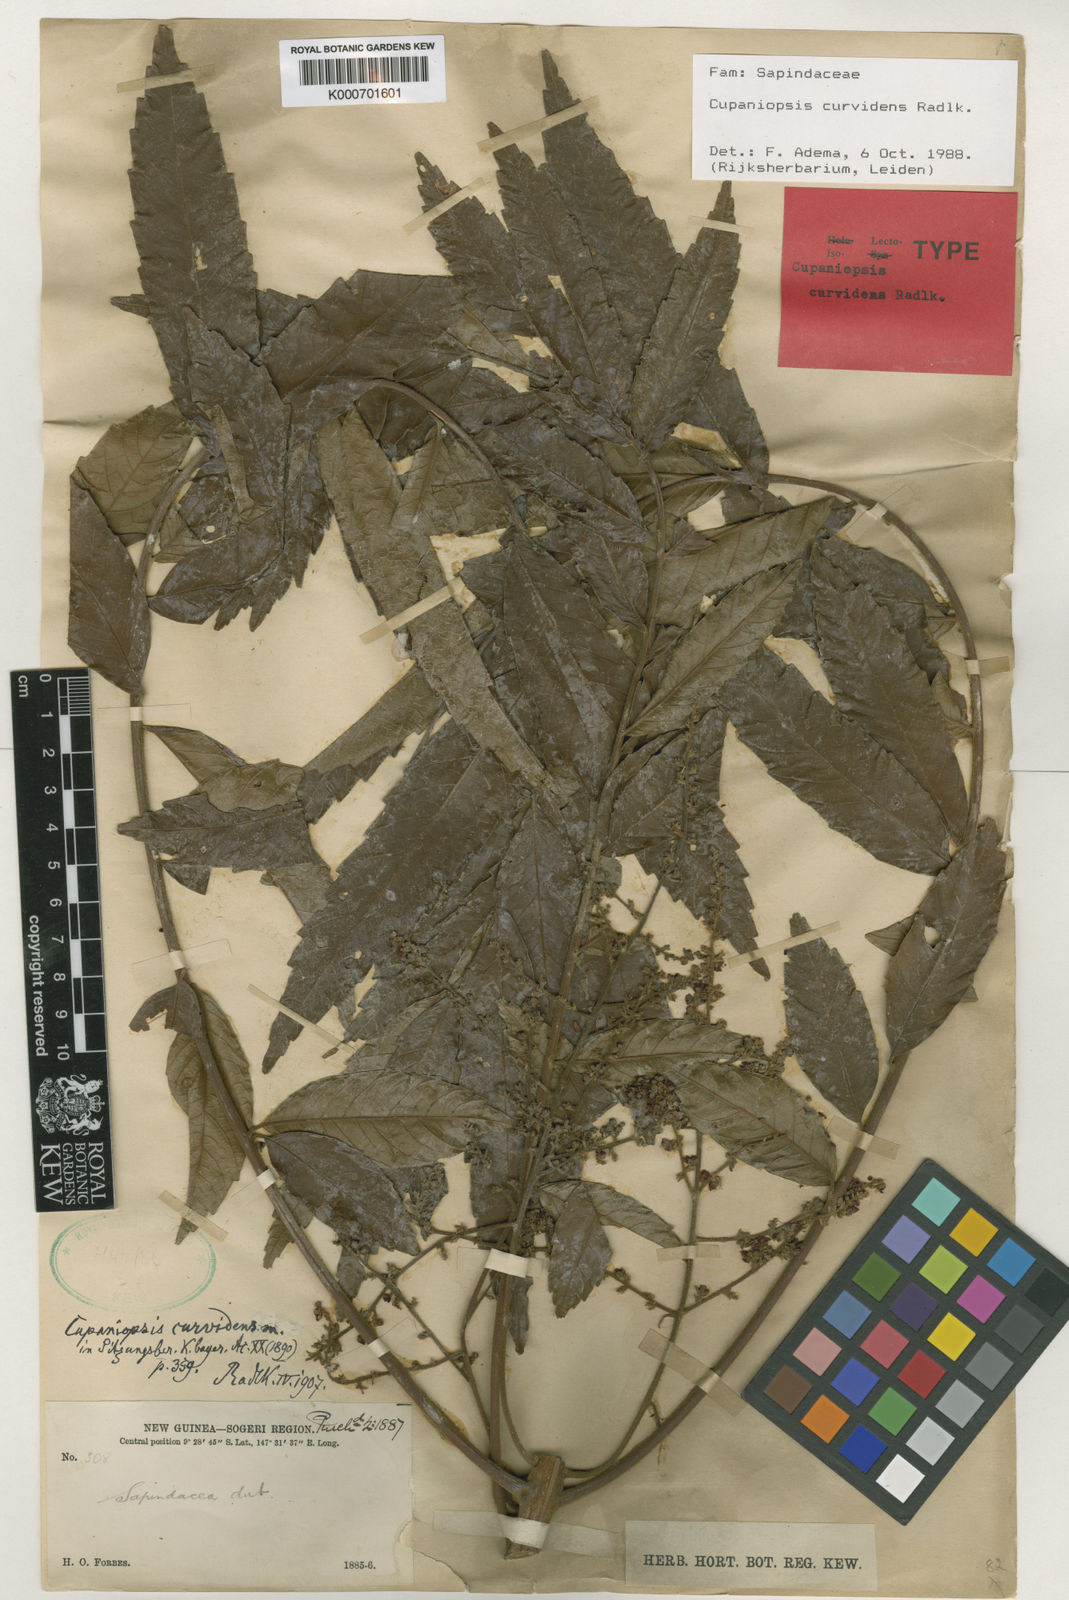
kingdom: Plantae
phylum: Tracheophyta
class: Magnoliopsida
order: Sapindales
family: Sapindaceae
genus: Cupaniopsis
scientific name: Cupaniopsis curvidens
